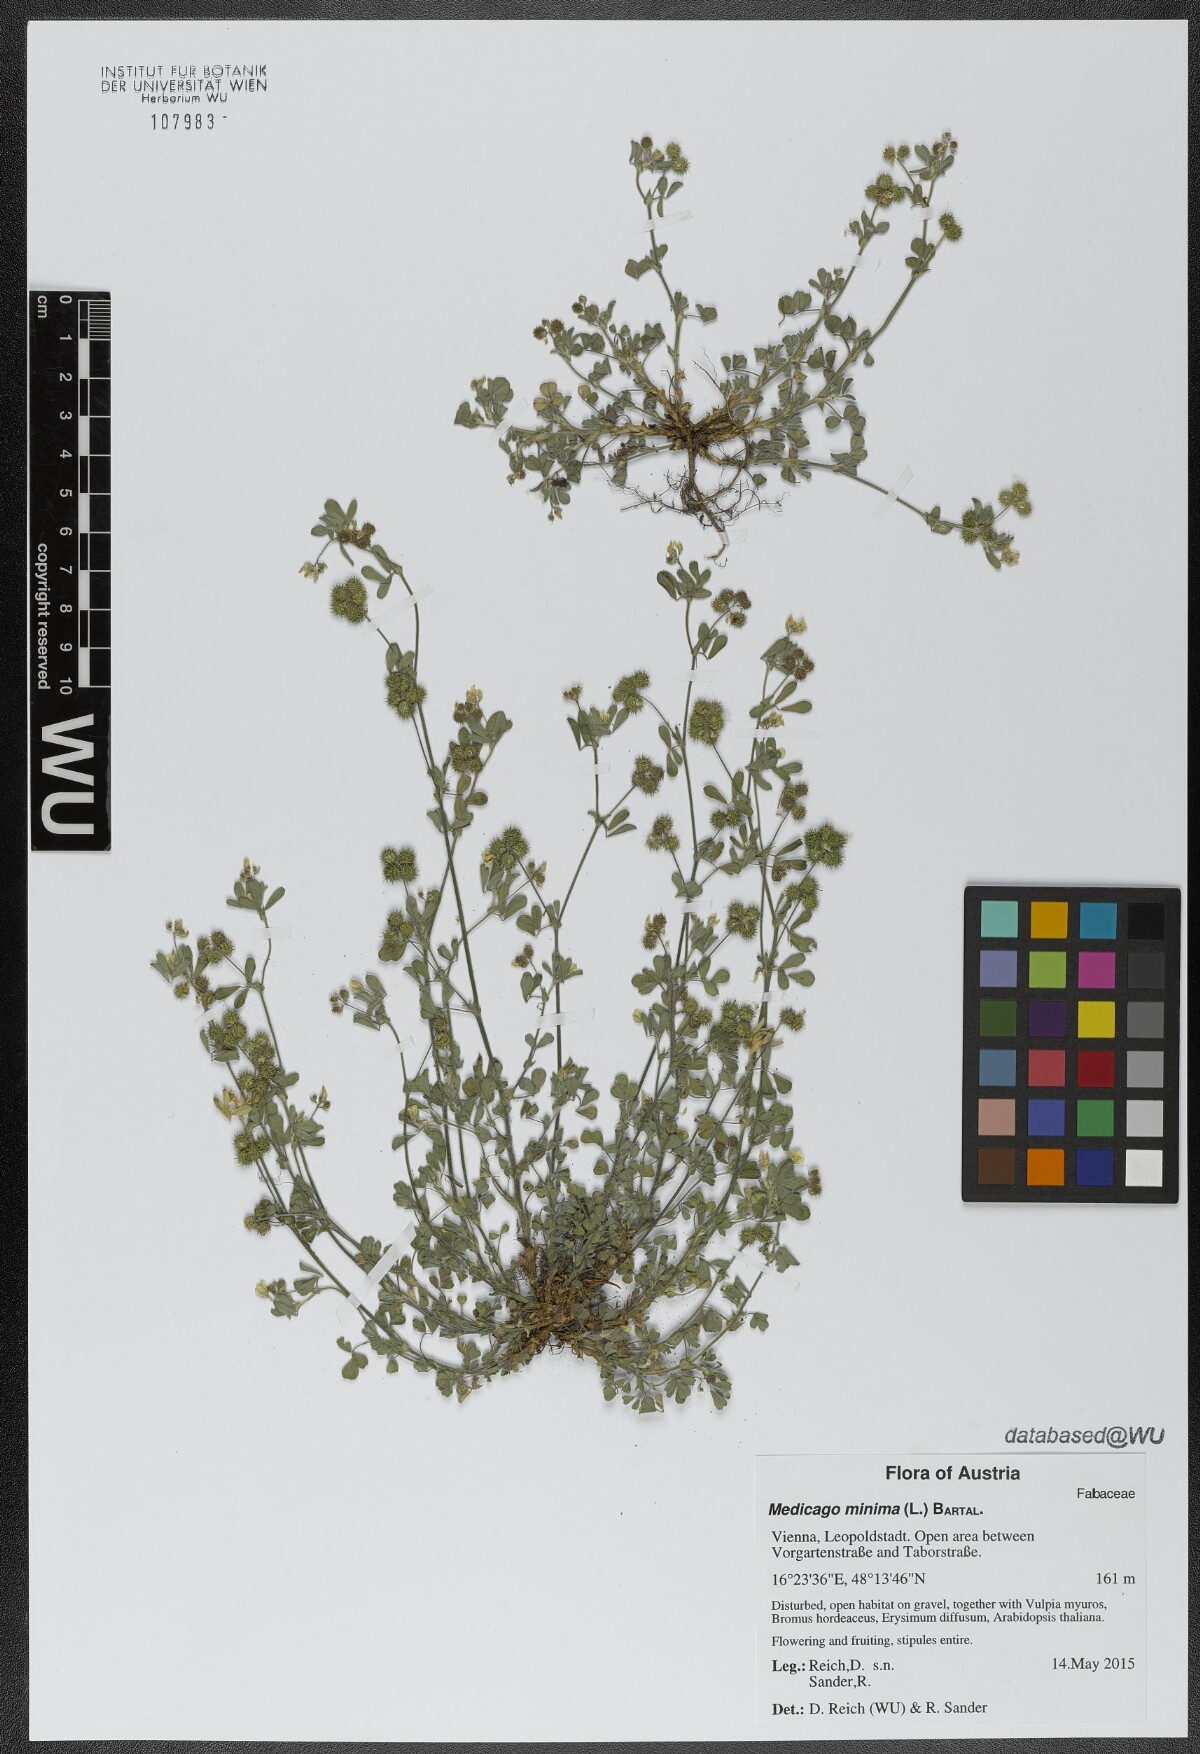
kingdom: Plantae
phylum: Tracheophyta
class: Magnoliopsida
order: Fabales
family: Fabaceae
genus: Medicago
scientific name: Medicago minima
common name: Little bur-clover
